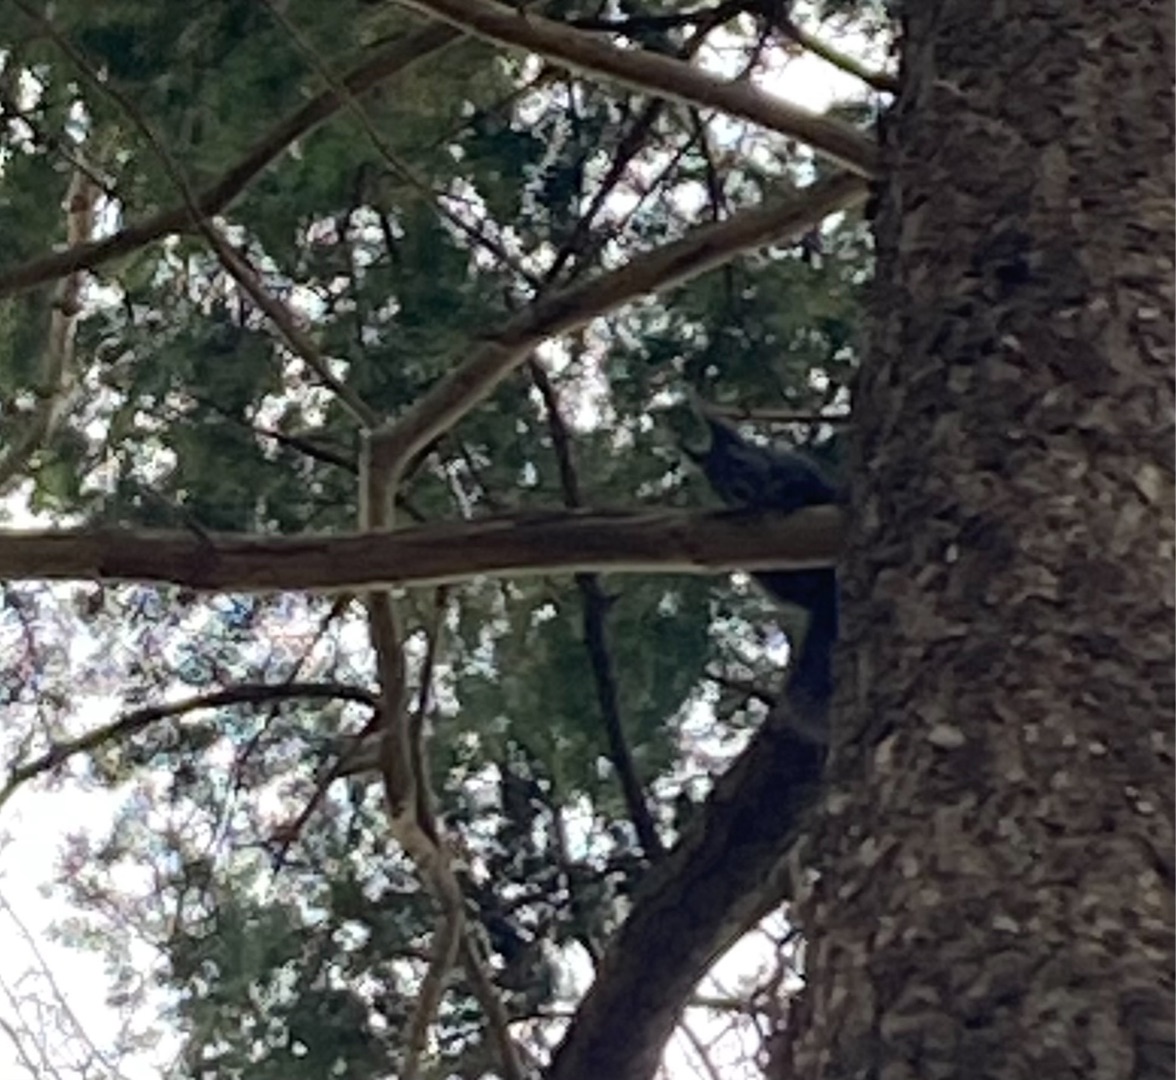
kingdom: Animalia
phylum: Chordata
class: Mammalia
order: Rodentia
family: Sciuridae
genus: Sciurus
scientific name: Sciurus vulgaris
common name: Egern
